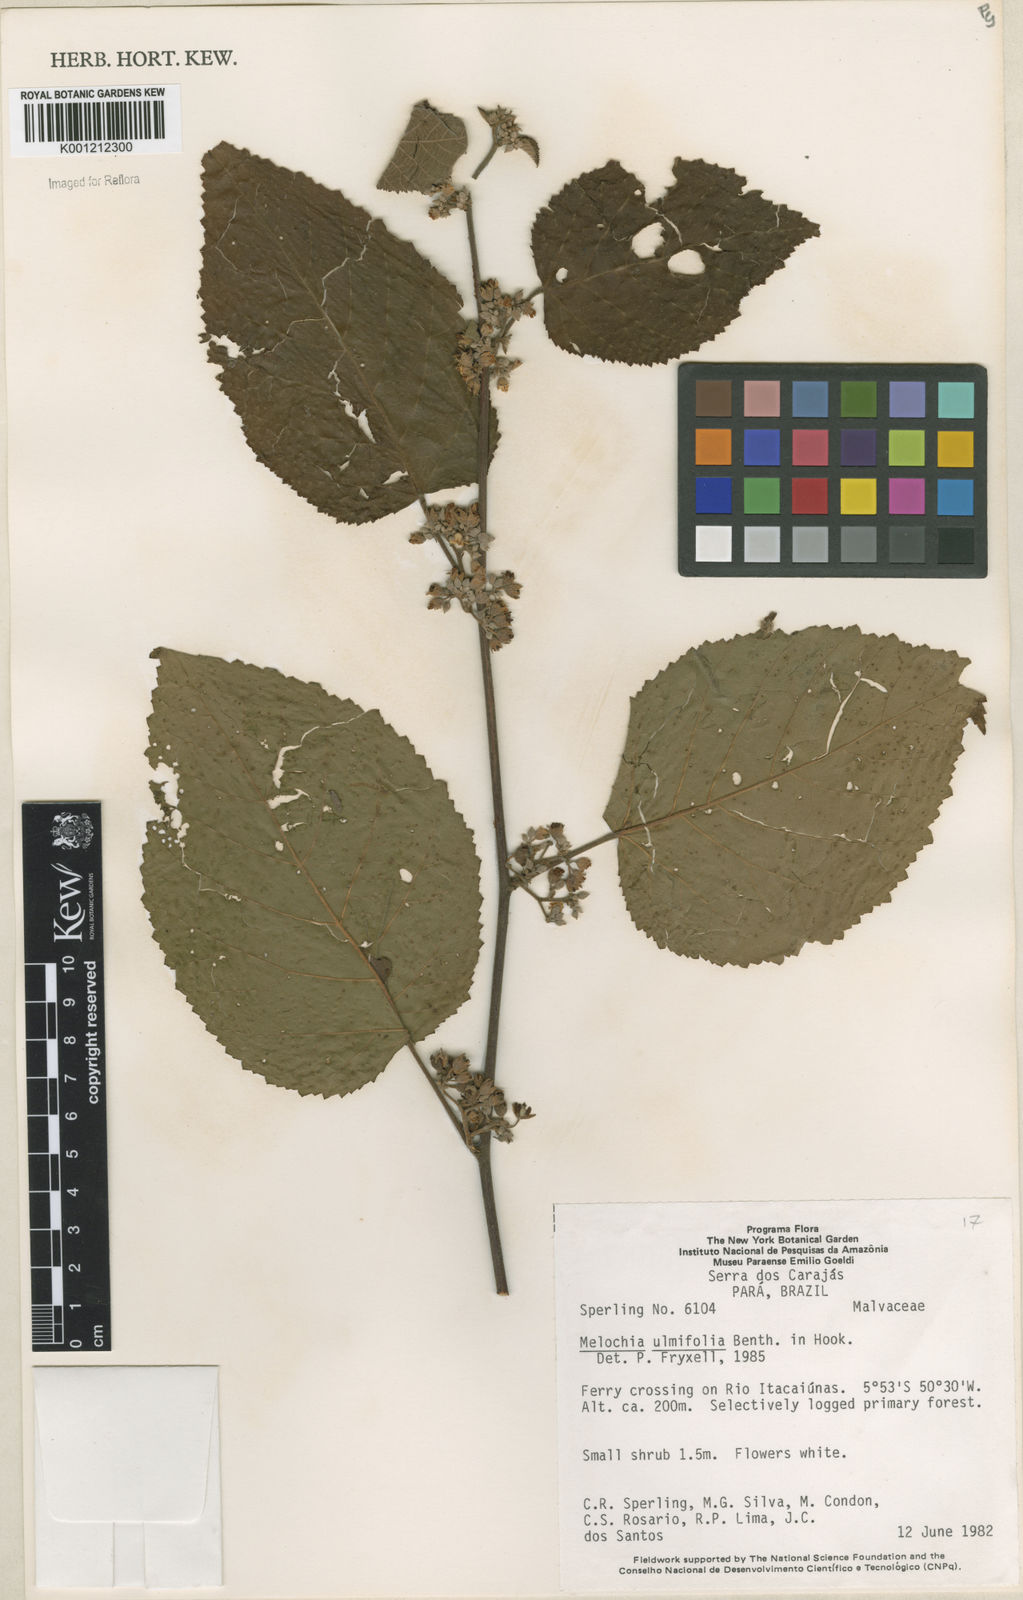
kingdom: Plantae
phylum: Tracheophyta
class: Magnoliopsida
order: Malvales
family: Malvaceae
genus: Melochia
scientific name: Melochia ulmifolia
